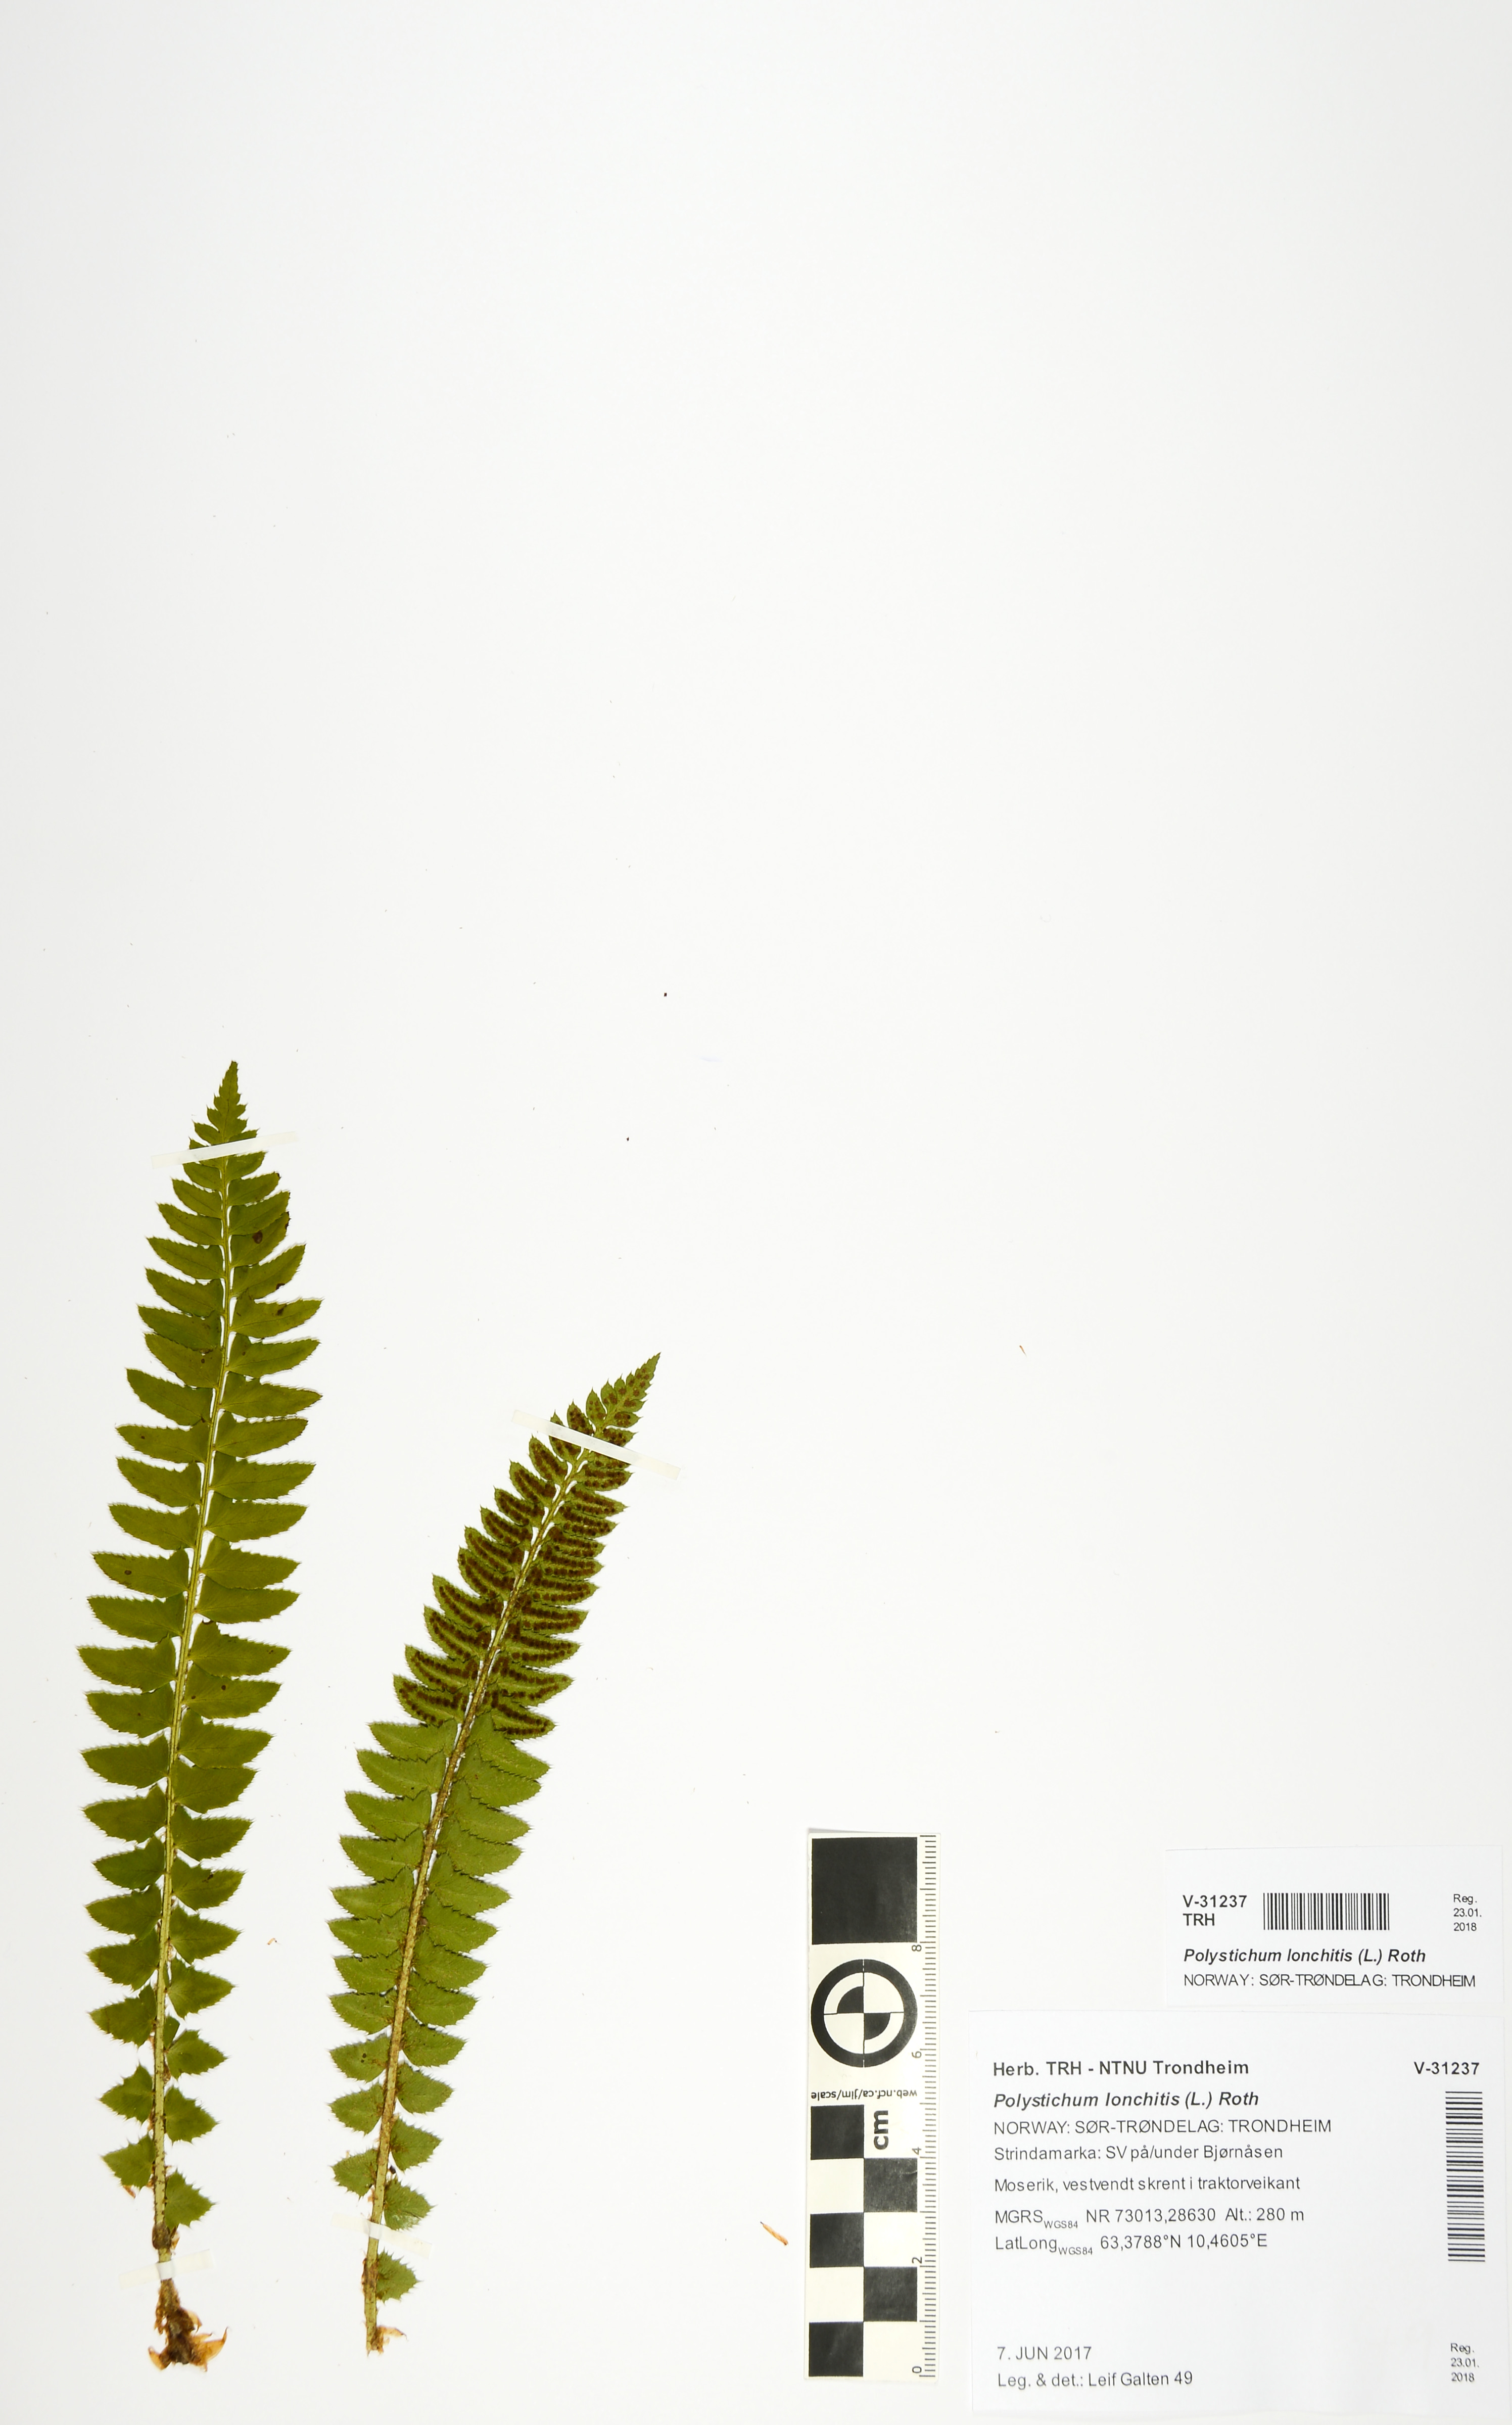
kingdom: Plantae
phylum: Tracheophyta
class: Polypodiopsida
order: Polypodiales
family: Dryopteridaceae
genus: Polystichum
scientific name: Polystichum lonchitis
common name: Holly fern
